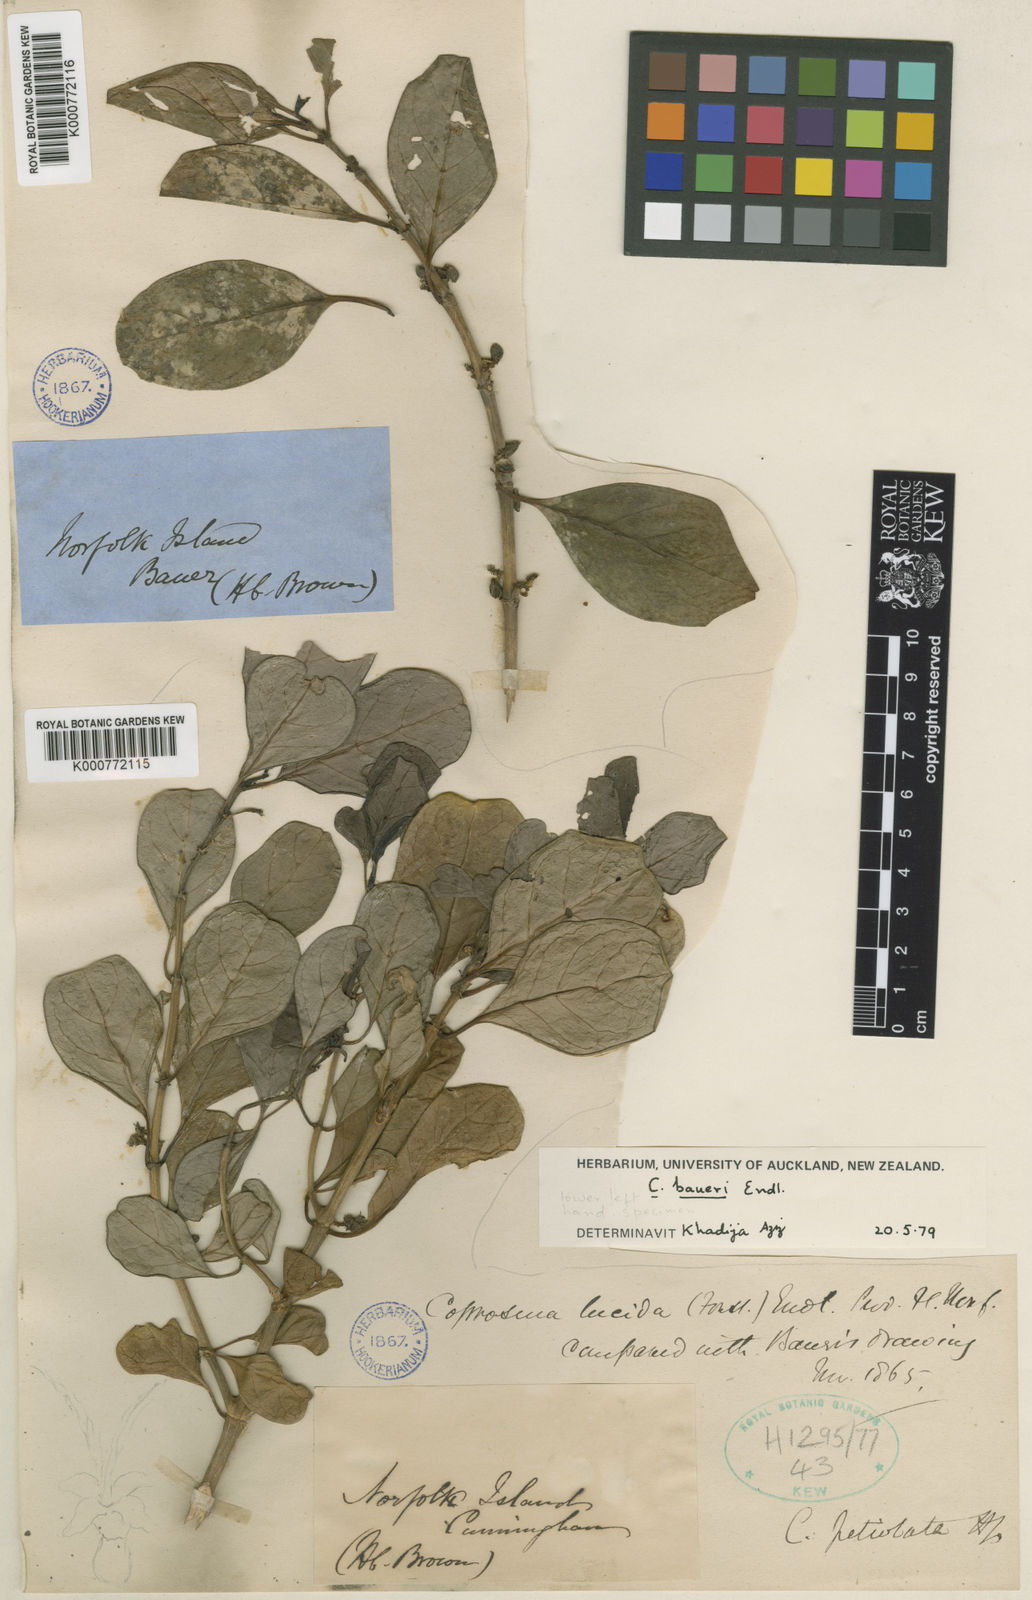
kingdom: Plantae
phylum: Tracheophyta
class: Magnoliopsida
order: Gentianales
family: Rubiaceae
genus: Coprosma
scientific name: Coprosma baueri
